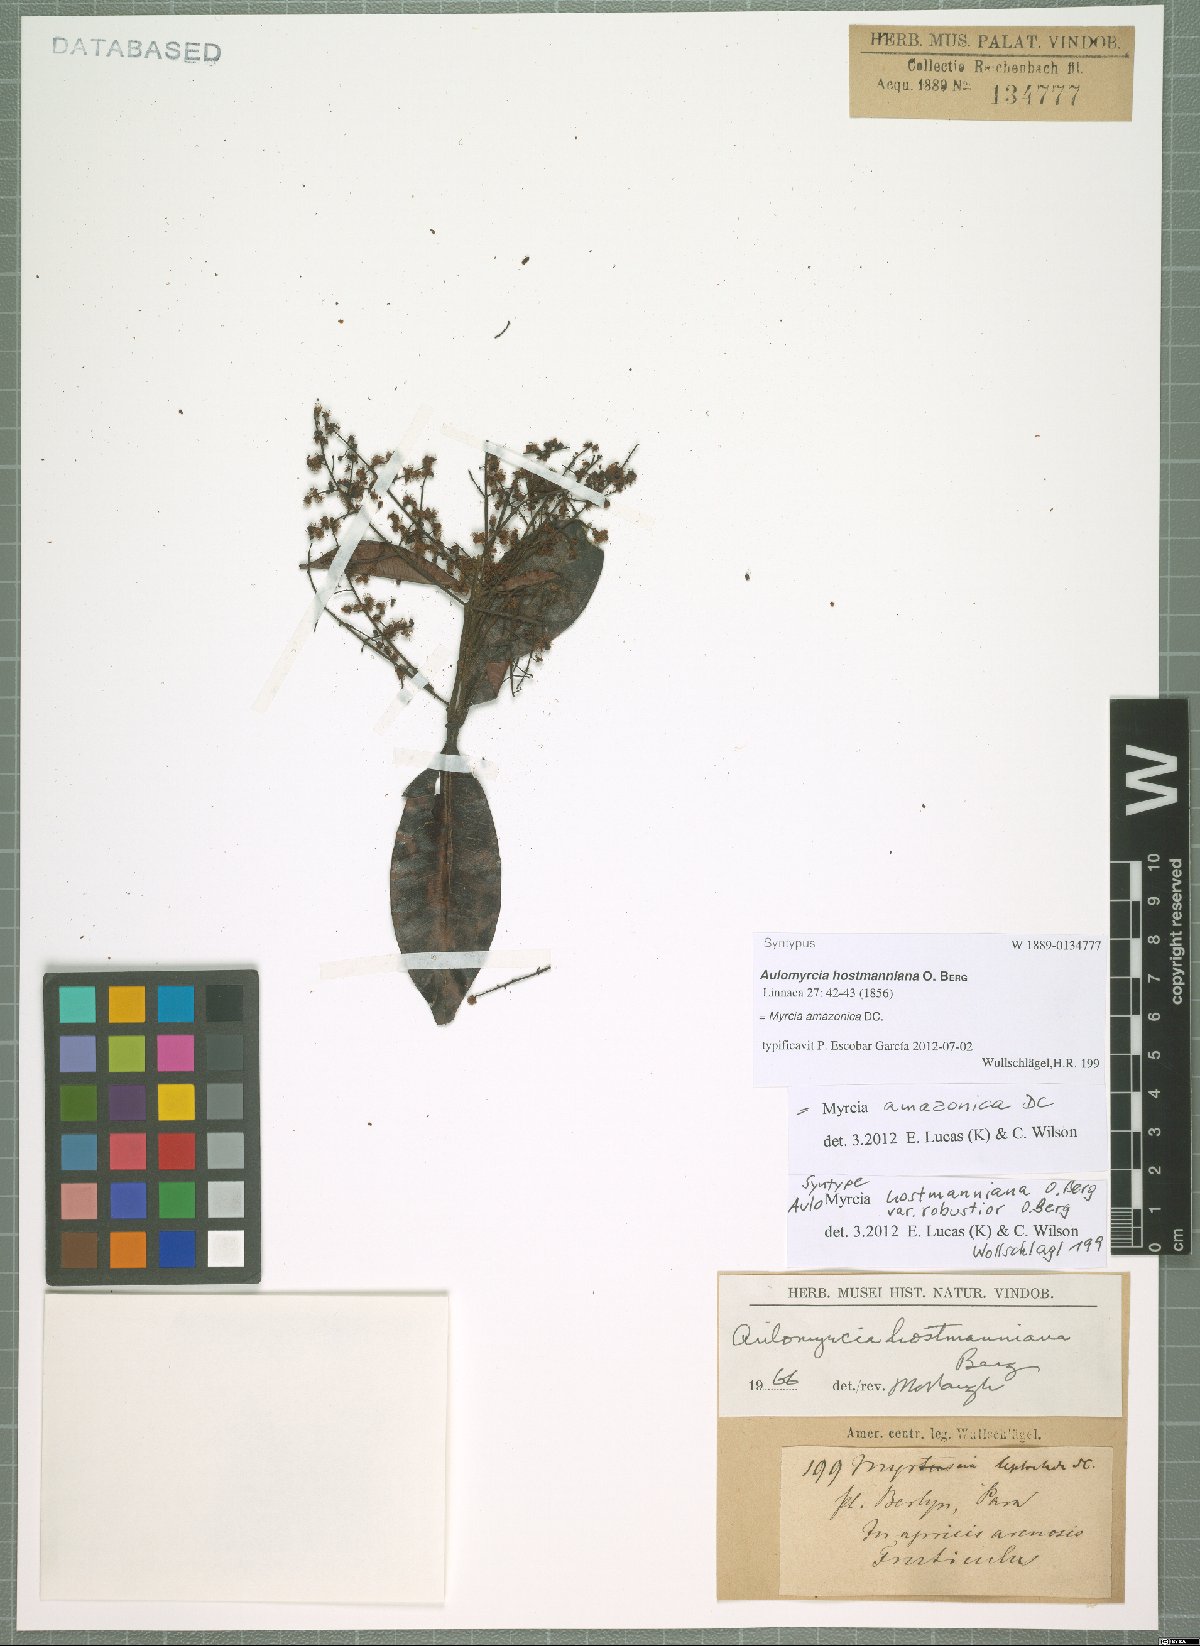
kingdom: Plantae
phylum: Tracheophyta
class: Magnoliopsida
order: Myrtales
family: Myrtaceae
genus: Myrcia
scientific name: Myrcia amazonica
